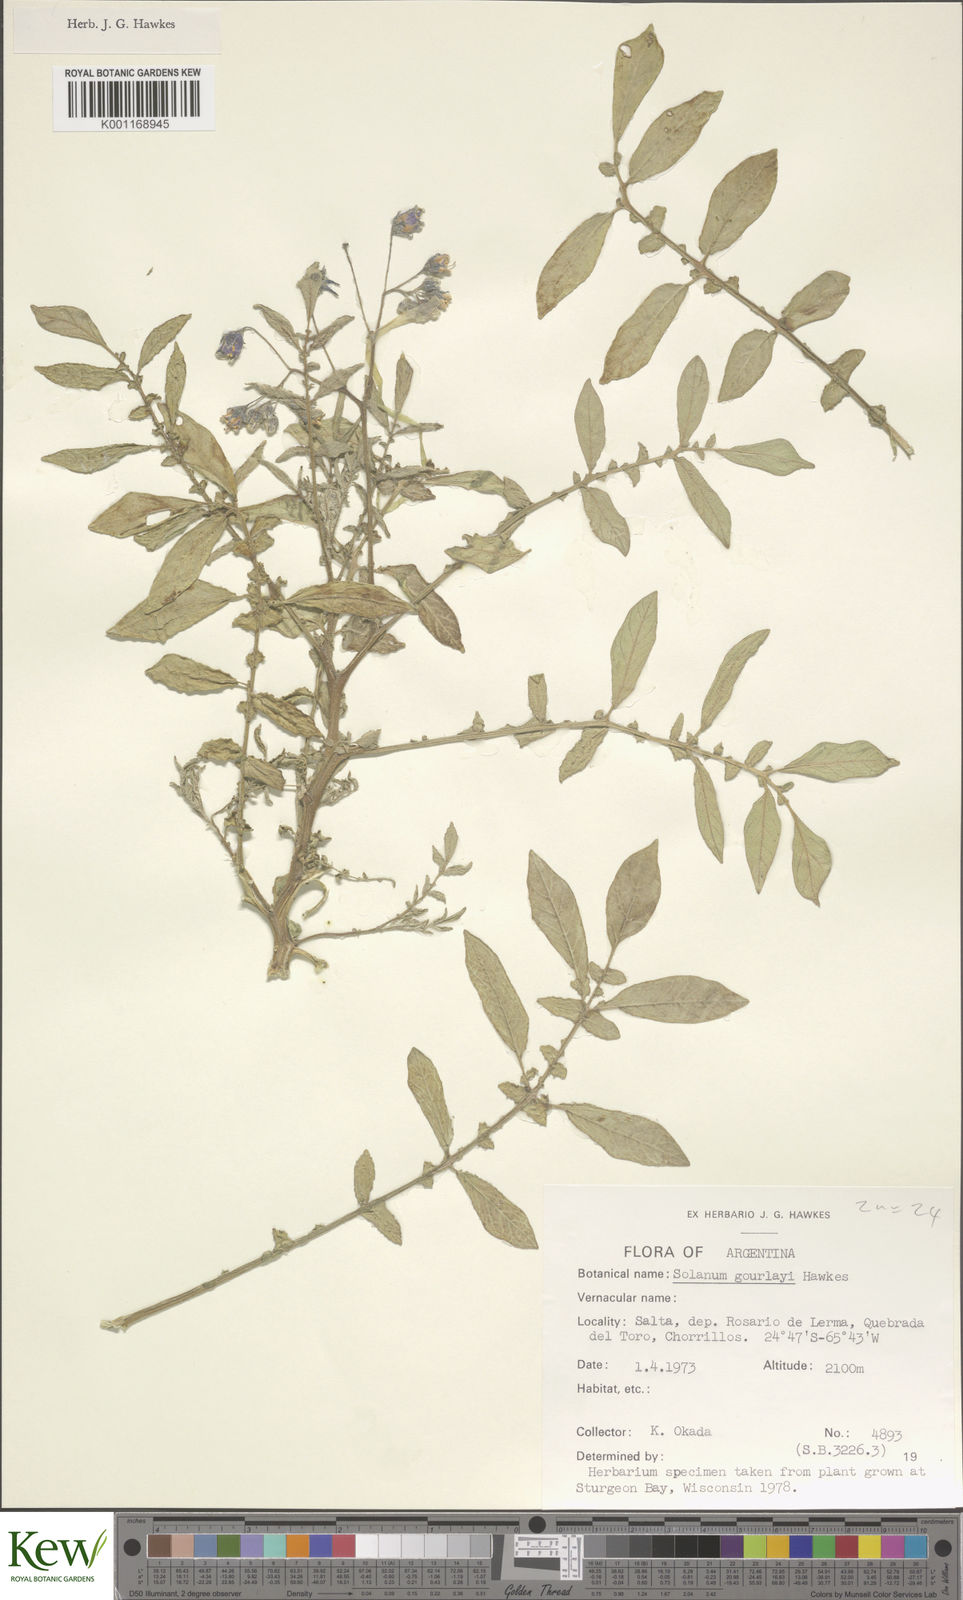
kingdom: Plantae
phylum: Tracheophyta
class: Magnoliopsida
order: Solanales
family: Solanaceae
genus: Solanum
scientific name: Solanum brevicaule
